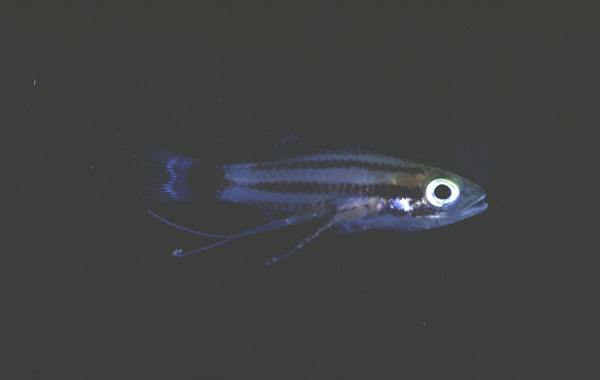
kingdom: Animalia
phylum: Chordata
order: Perciformes
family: Apogonidae
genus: Cheilodipterus
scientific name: Cheilodipterus macrodon
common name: Eight-lined cardinalfish
